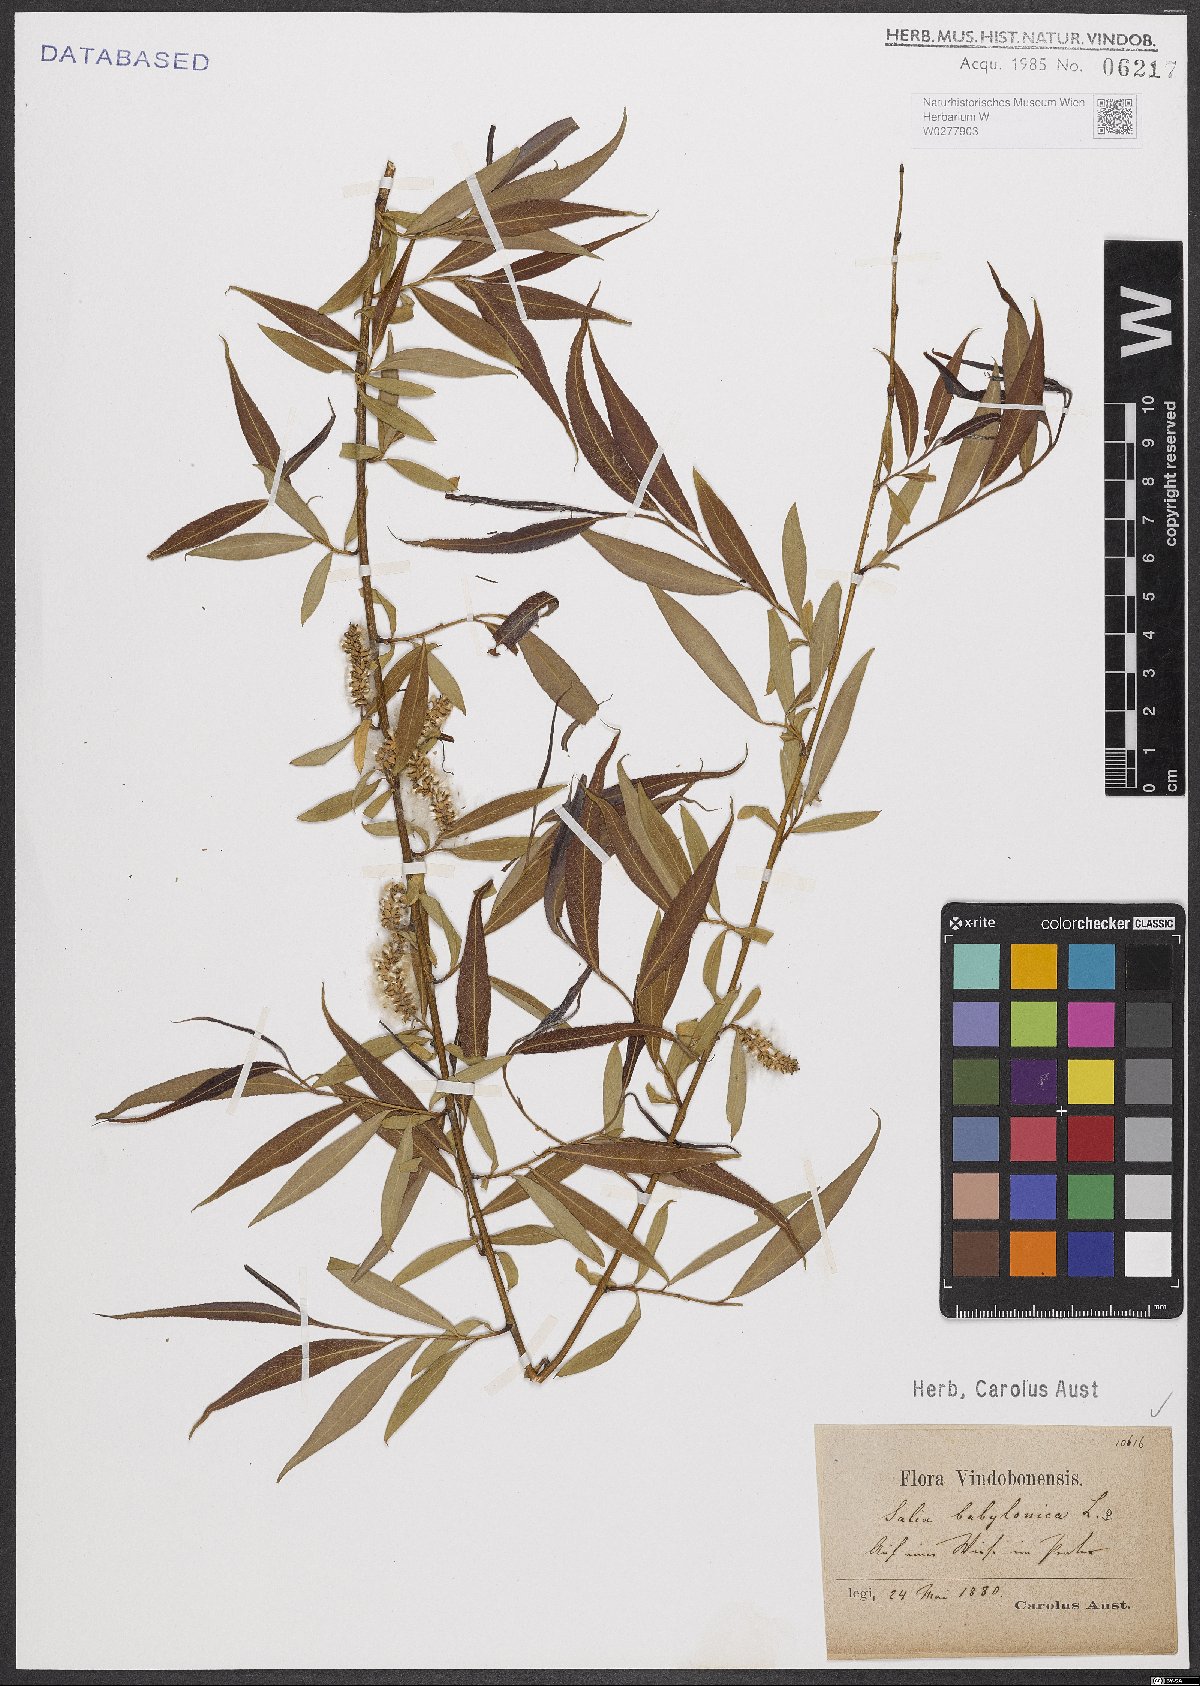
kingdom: Plantae
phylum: Tracheophyta
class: Magnoliopsida
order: Malpighiales
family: Salicaceae
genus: Salix
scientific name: Salix babylonica
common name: Weeping willow
